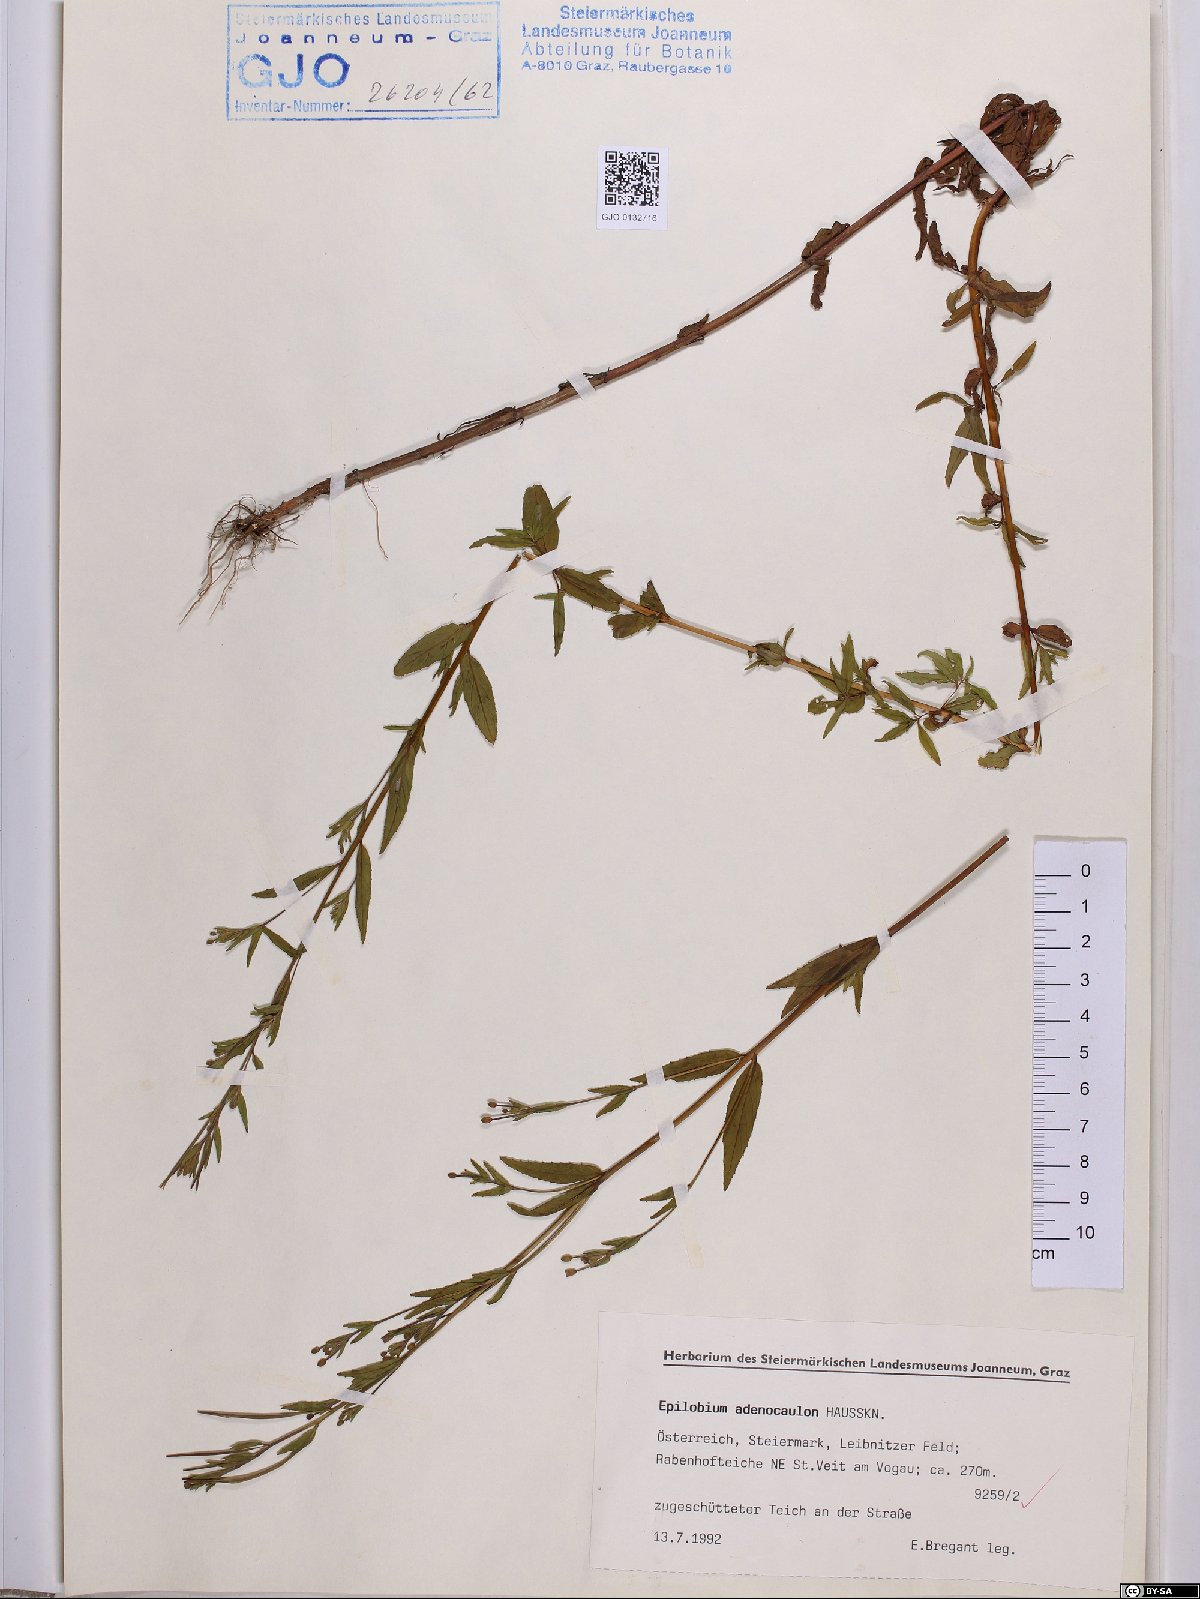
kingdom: Plantae
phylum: Tracheophyta
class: Magnoliopsida
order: Myrtales
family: Onagraceae
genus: Epilobium
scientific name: Epilobium ciliatum
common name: American willowherb
